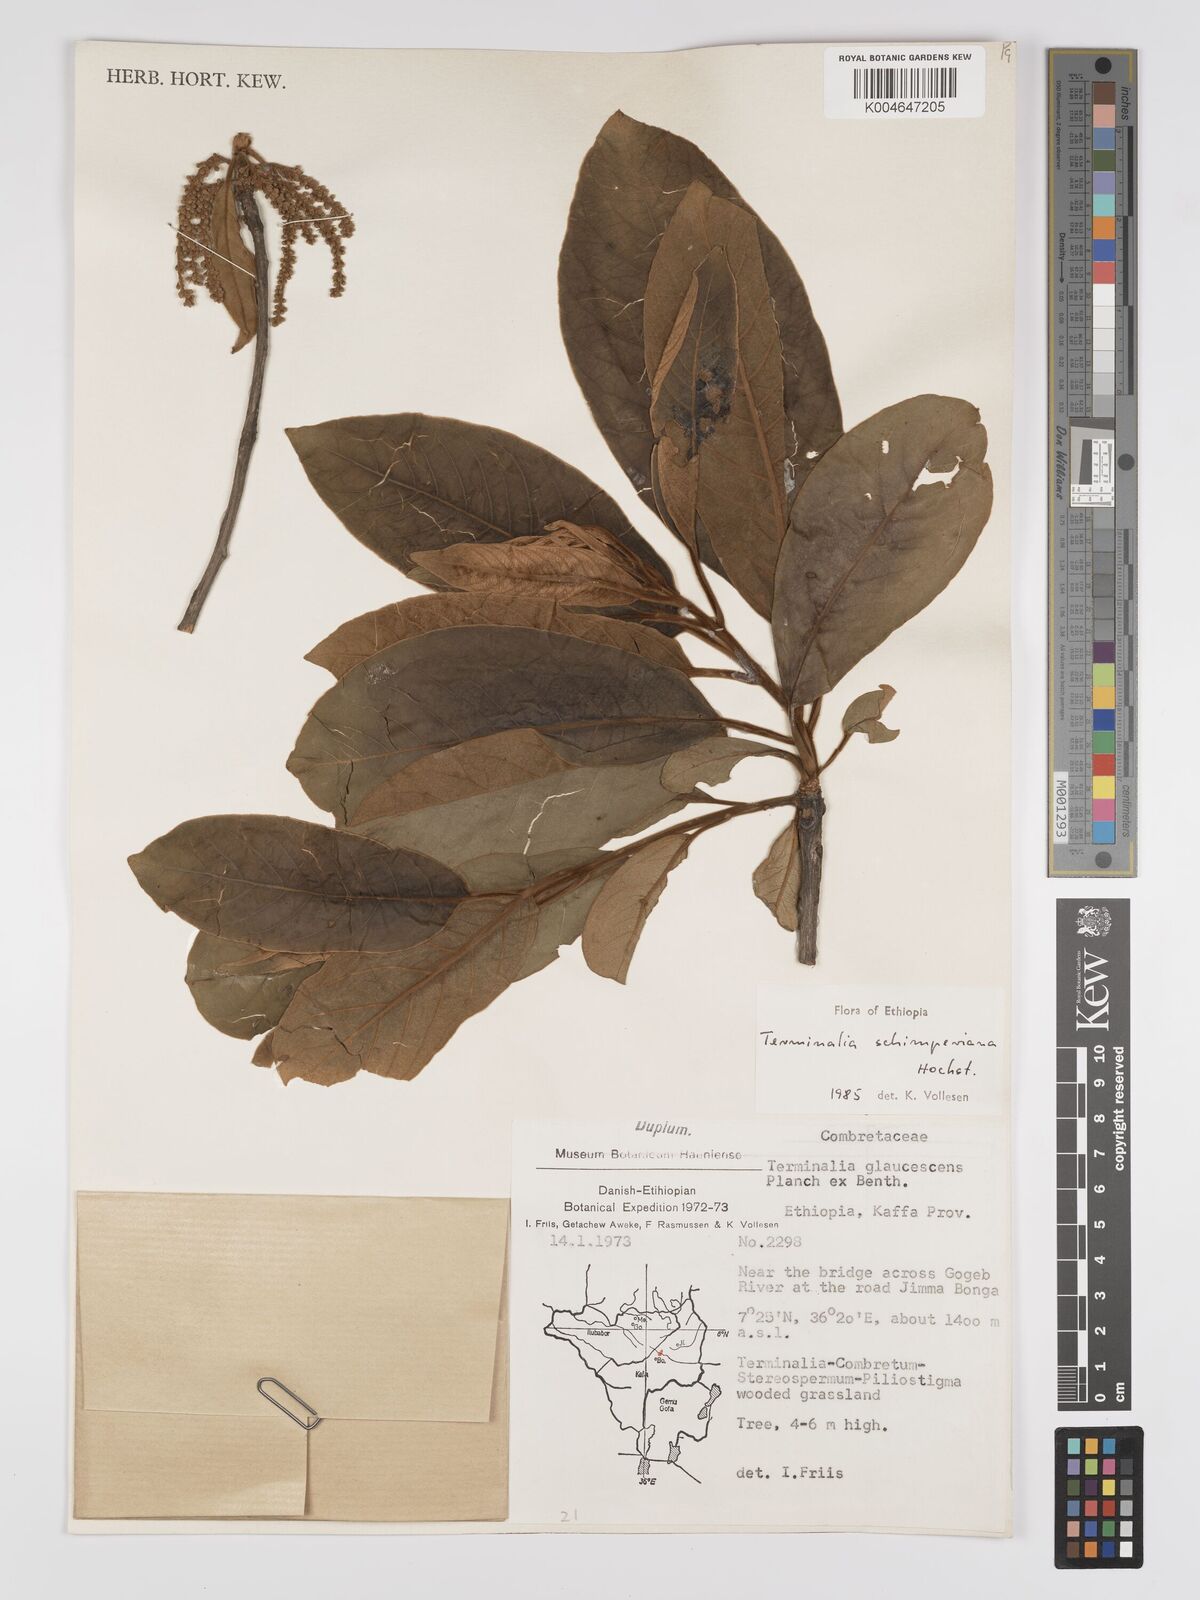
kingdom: Plantae
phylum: Tracheophyta
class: Magnoliopsida
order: Myrtales
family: Combretaceae
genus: Terminalia
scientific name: Terminalia schimperiana
